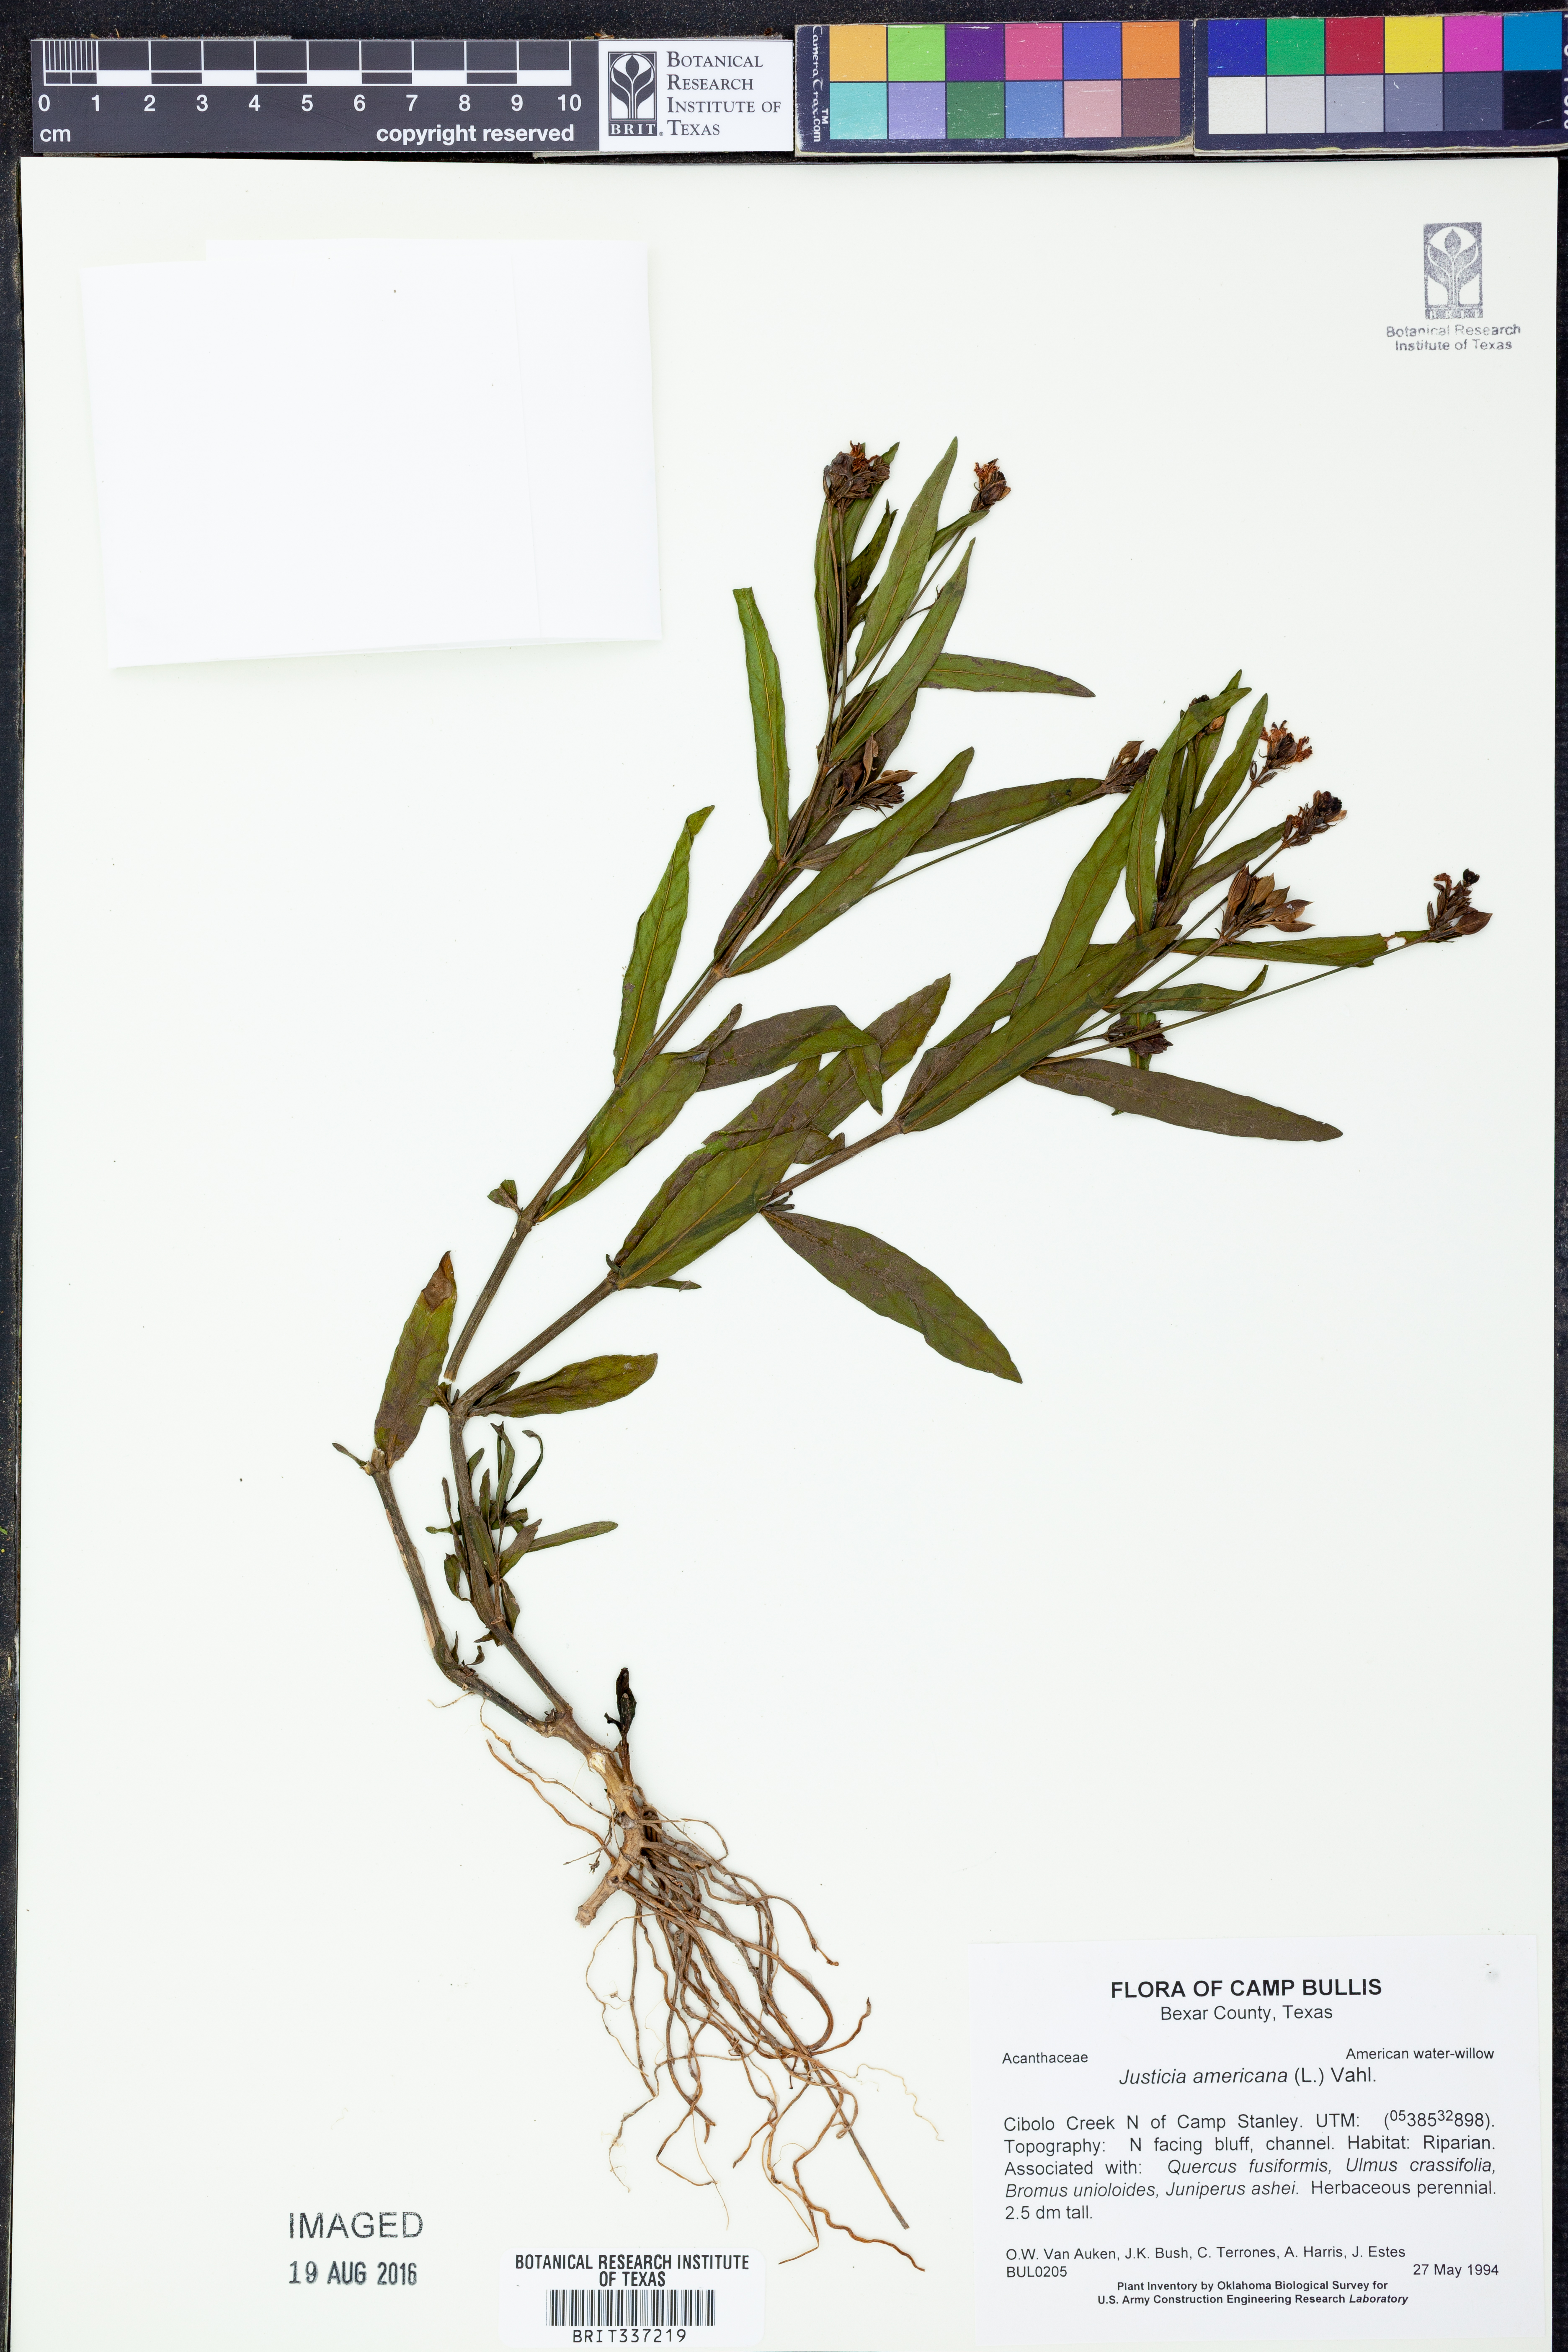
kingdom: Plantae
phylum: Tracheophyta
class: Magnoliopsida
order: Lamiales
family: Acanthaceae
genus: Dianthera
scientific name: Dianthera americana
